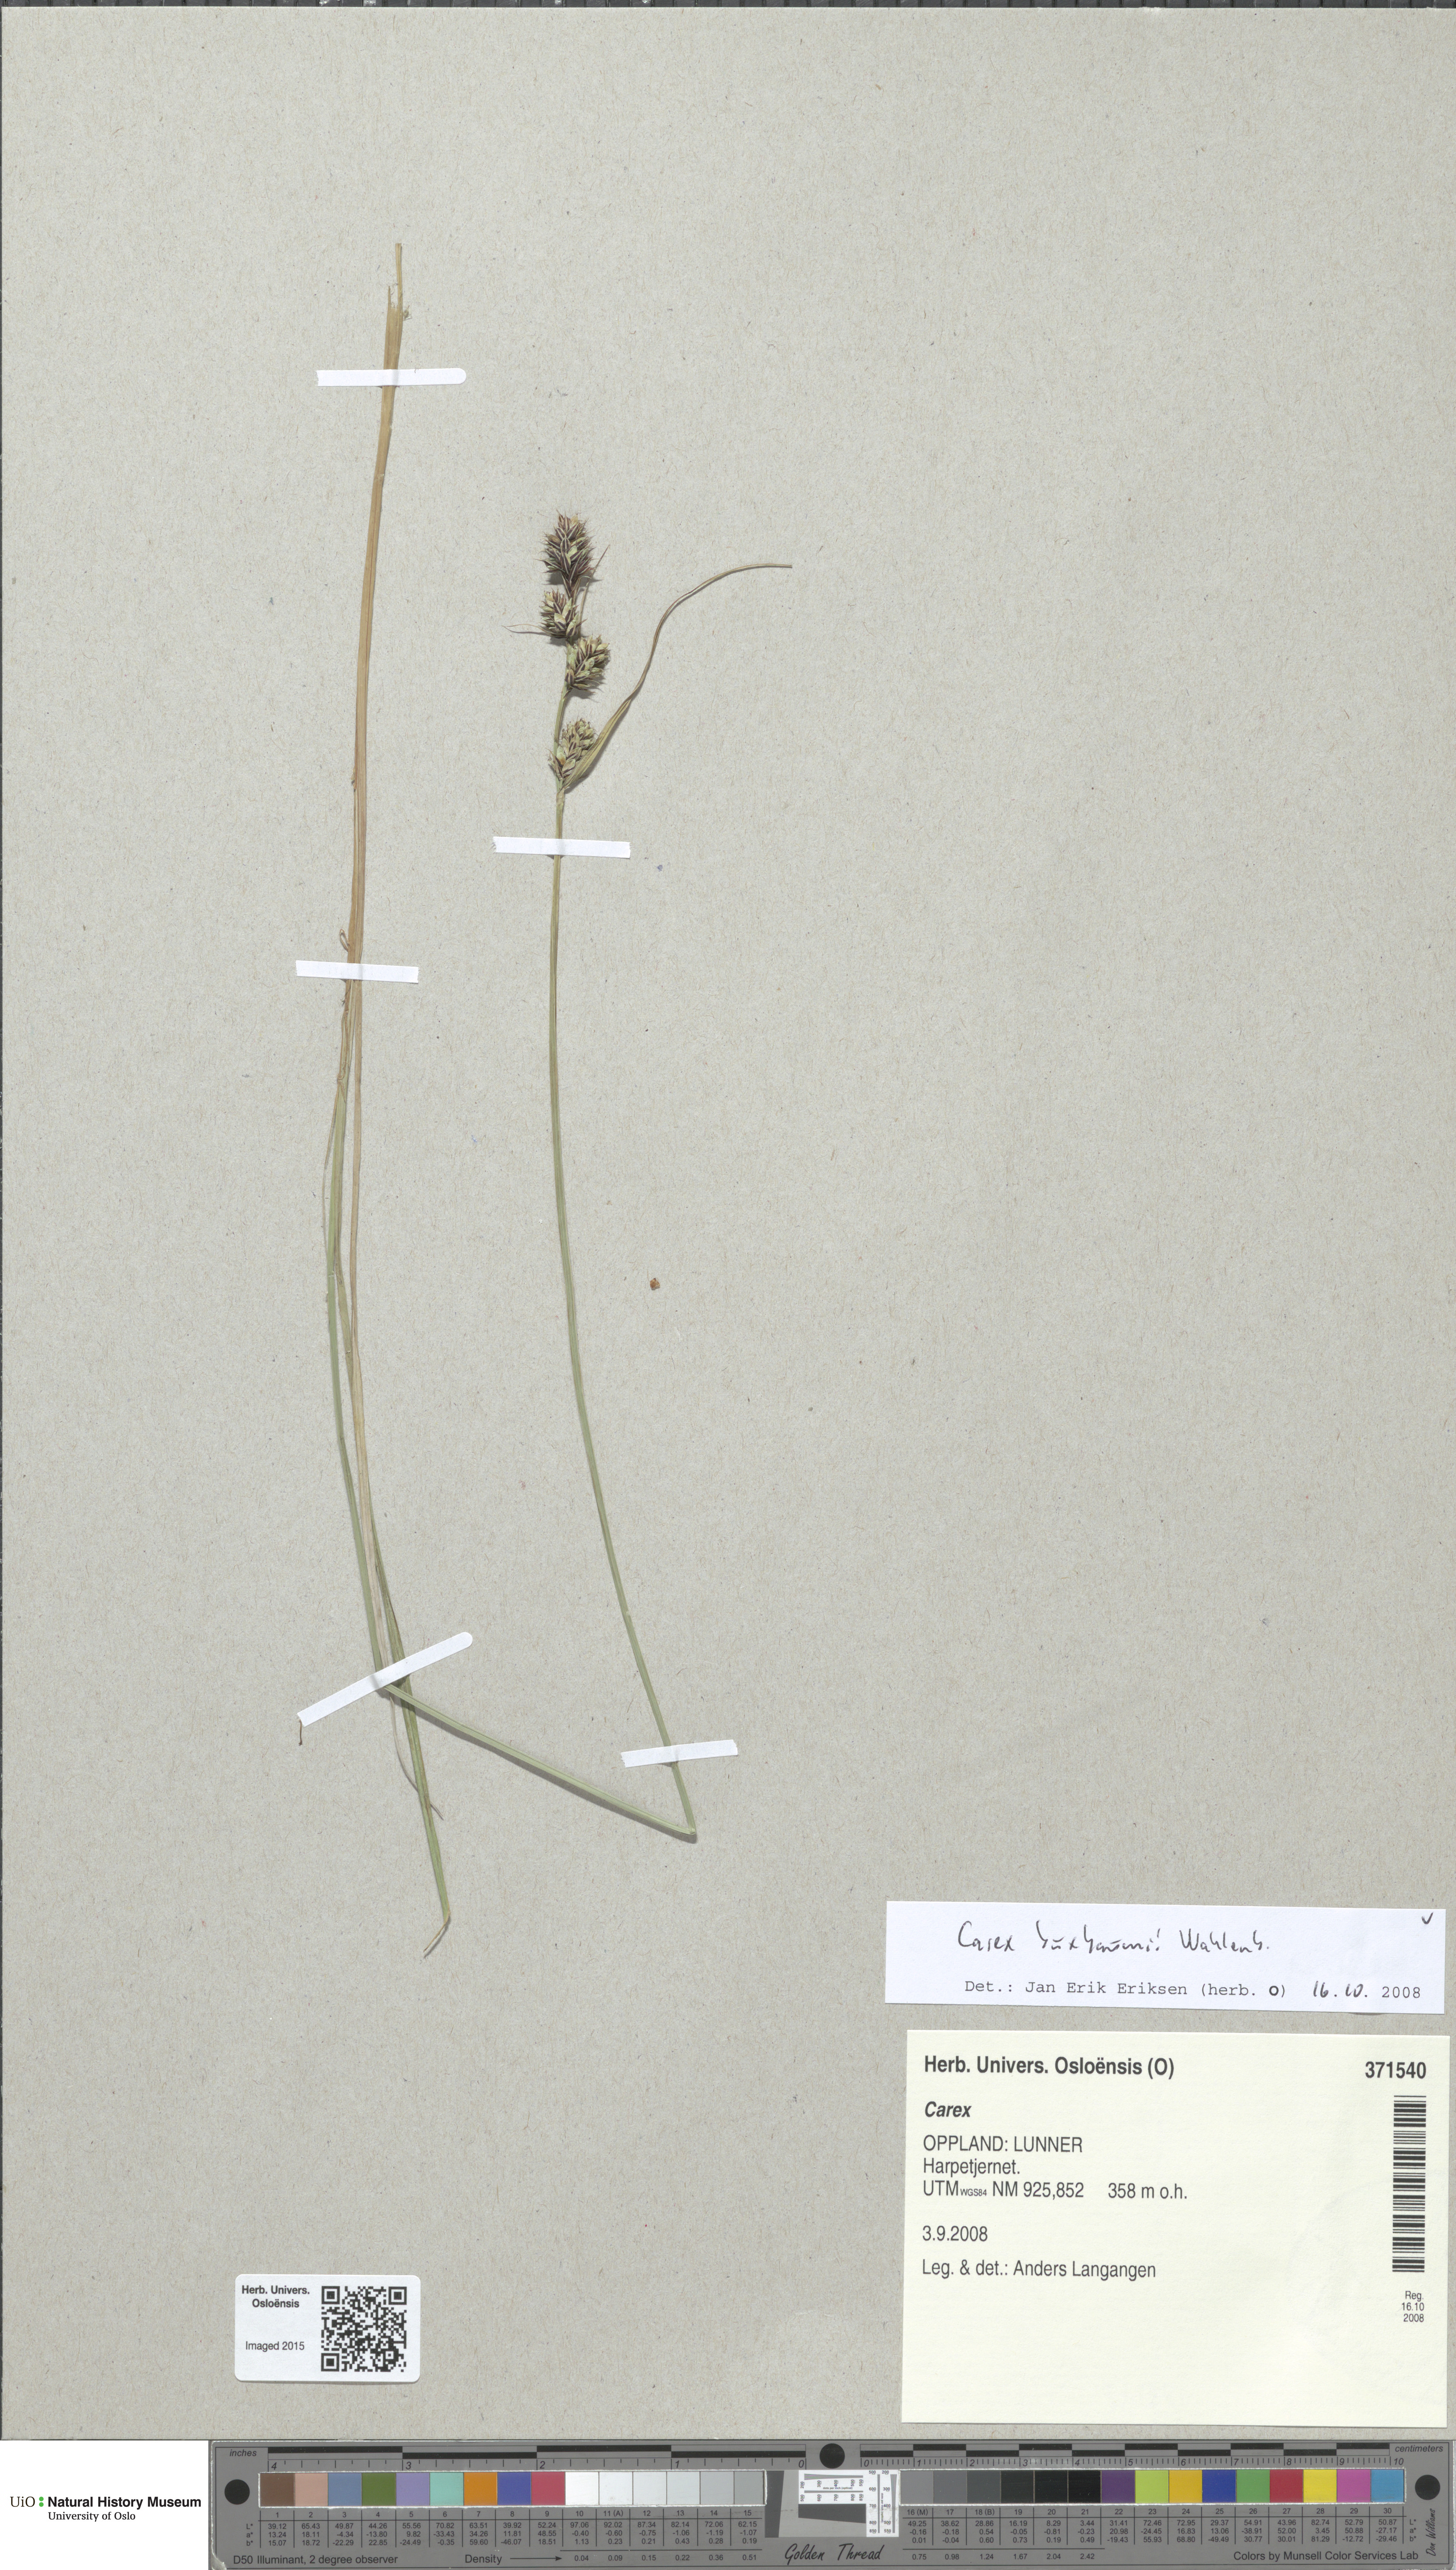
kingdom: Plantae
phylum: Tracheophyta
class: Liliopsida
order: Poales
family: Cyperaceae
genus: Carex
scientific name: Carex buxbaumii
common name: Club sedge
